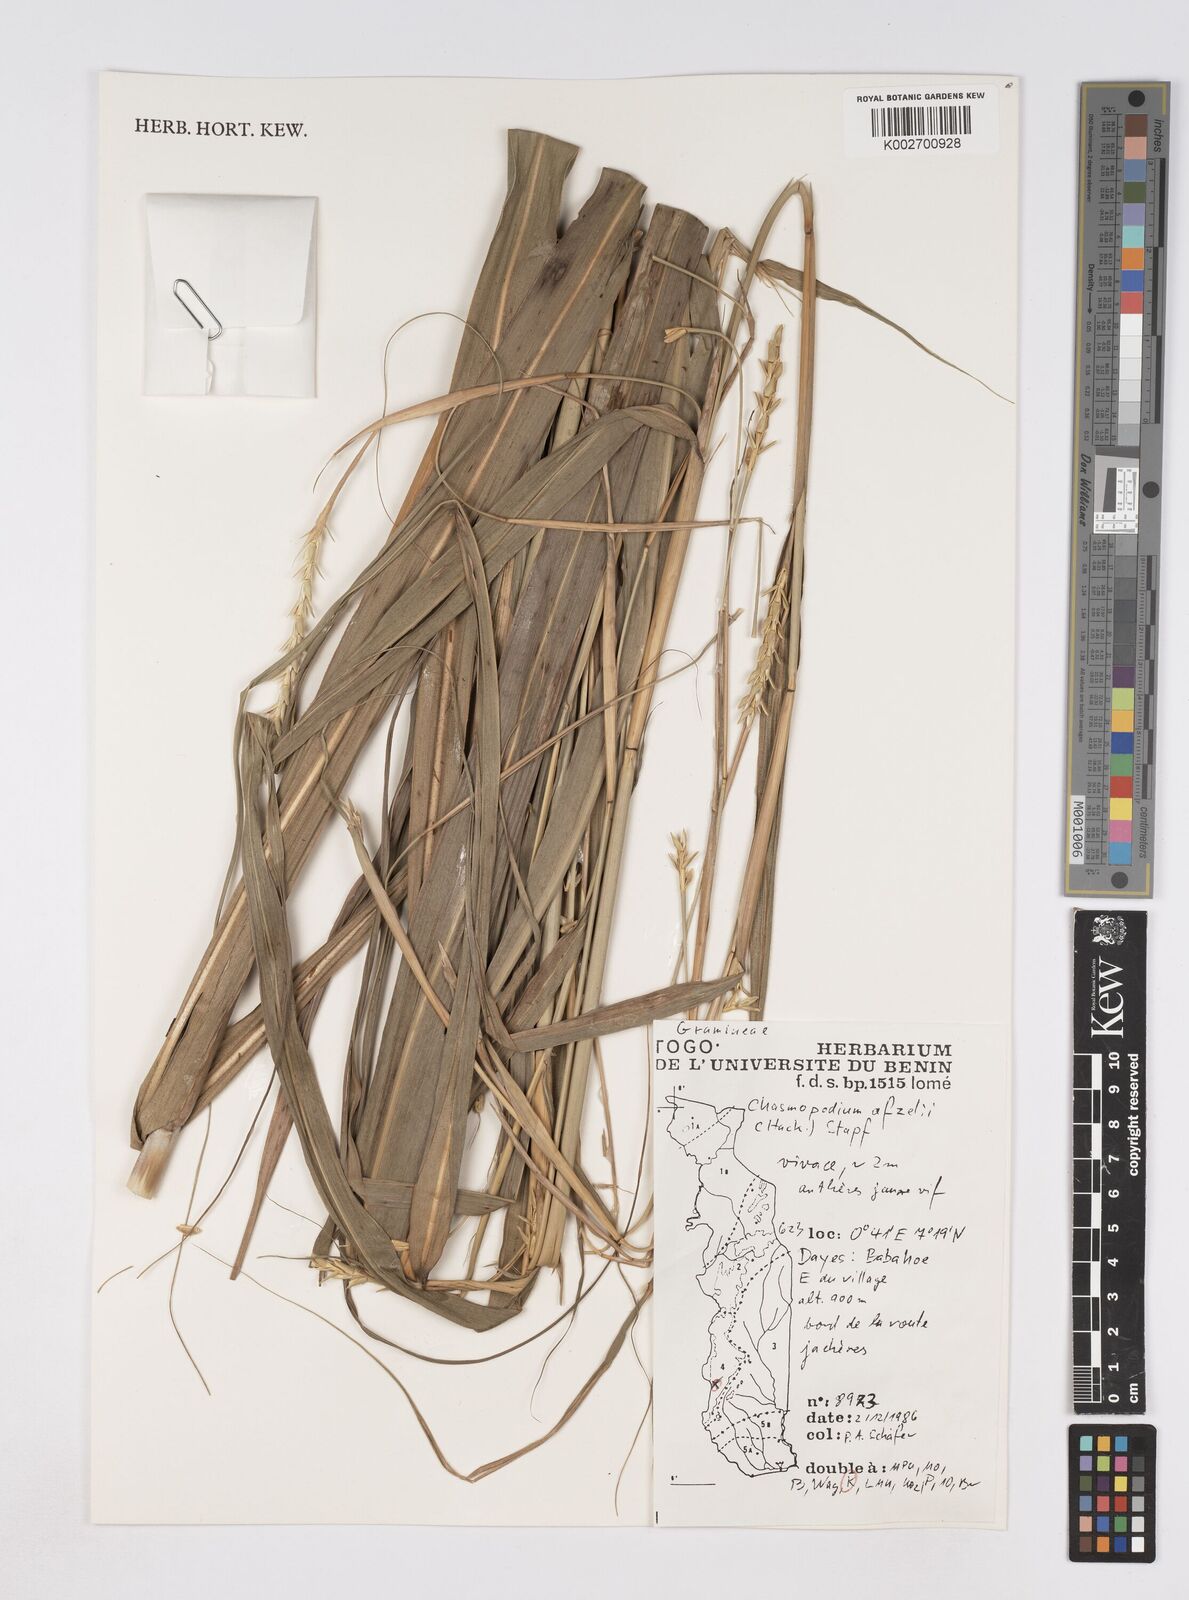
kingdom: Plantae
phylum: Tracheophyta
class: Liliopsida
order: Poales
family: Poaceae
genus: Chasmopodium
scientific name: Chasmopodium caudatum
